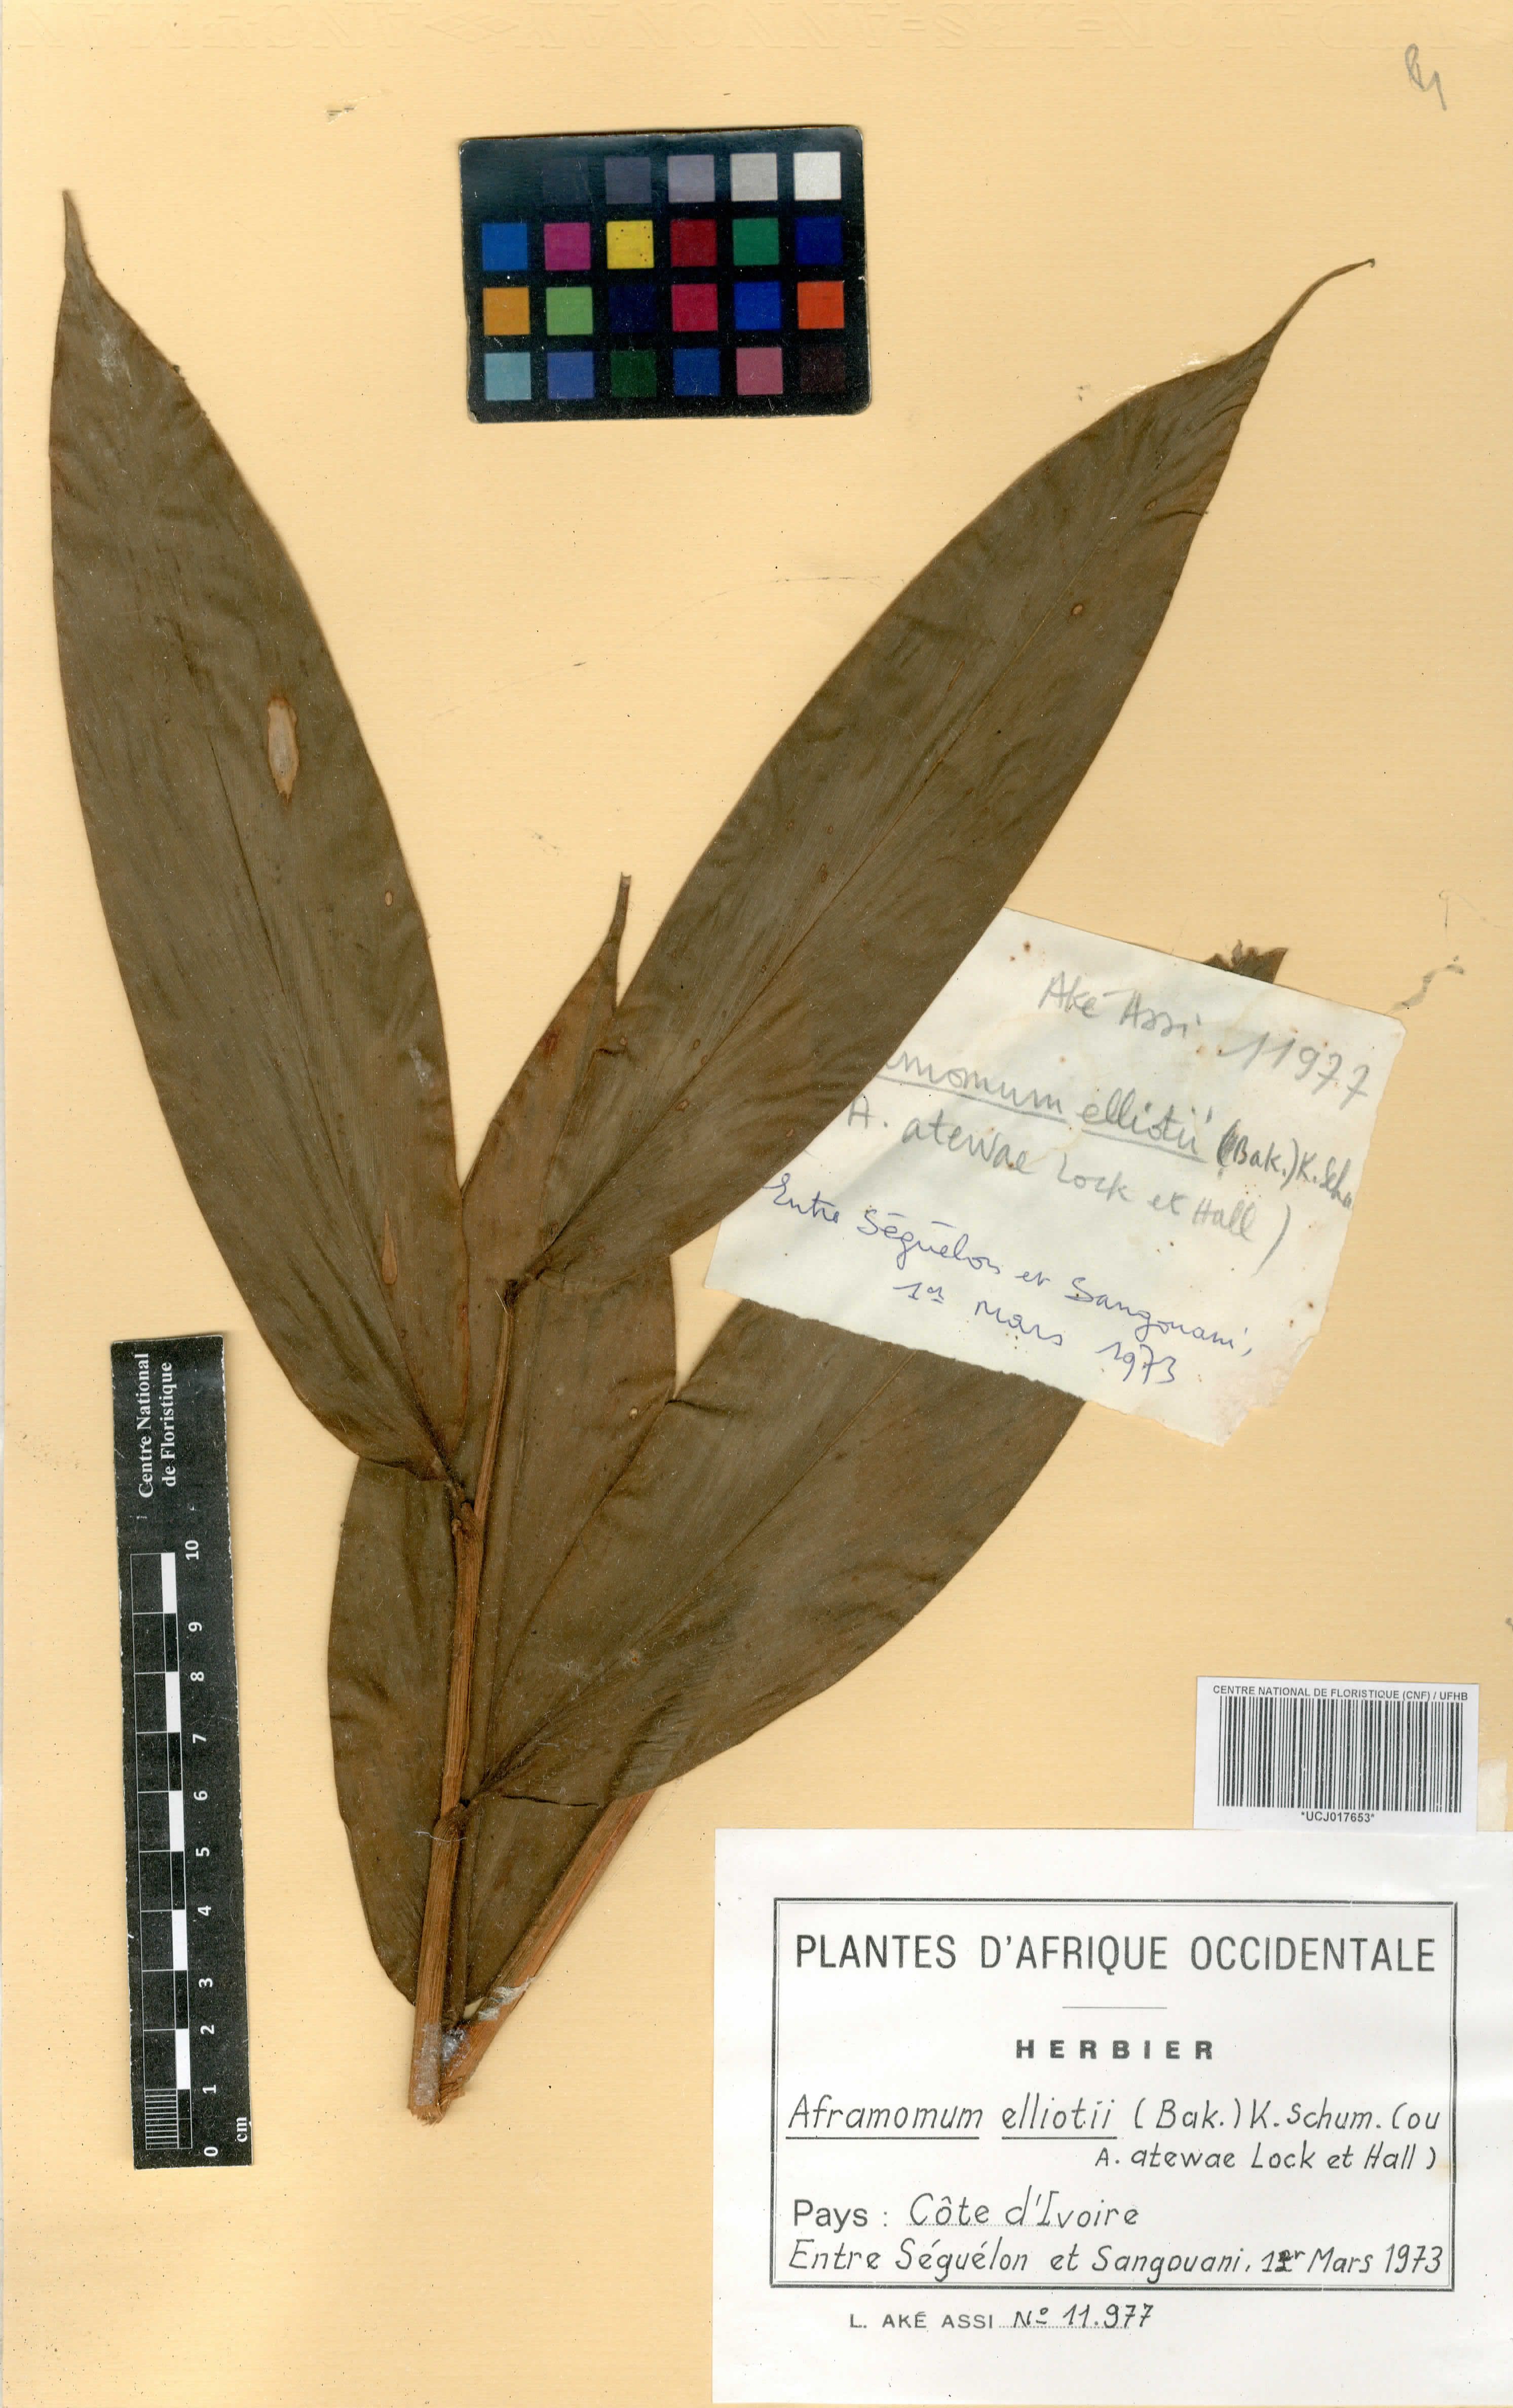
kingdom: Plantae
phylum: Tracheophyta
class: Liliopsida
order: Zingiberales
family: Zingiberaceae
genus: Aframomum
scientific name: Aframomum elliottii
